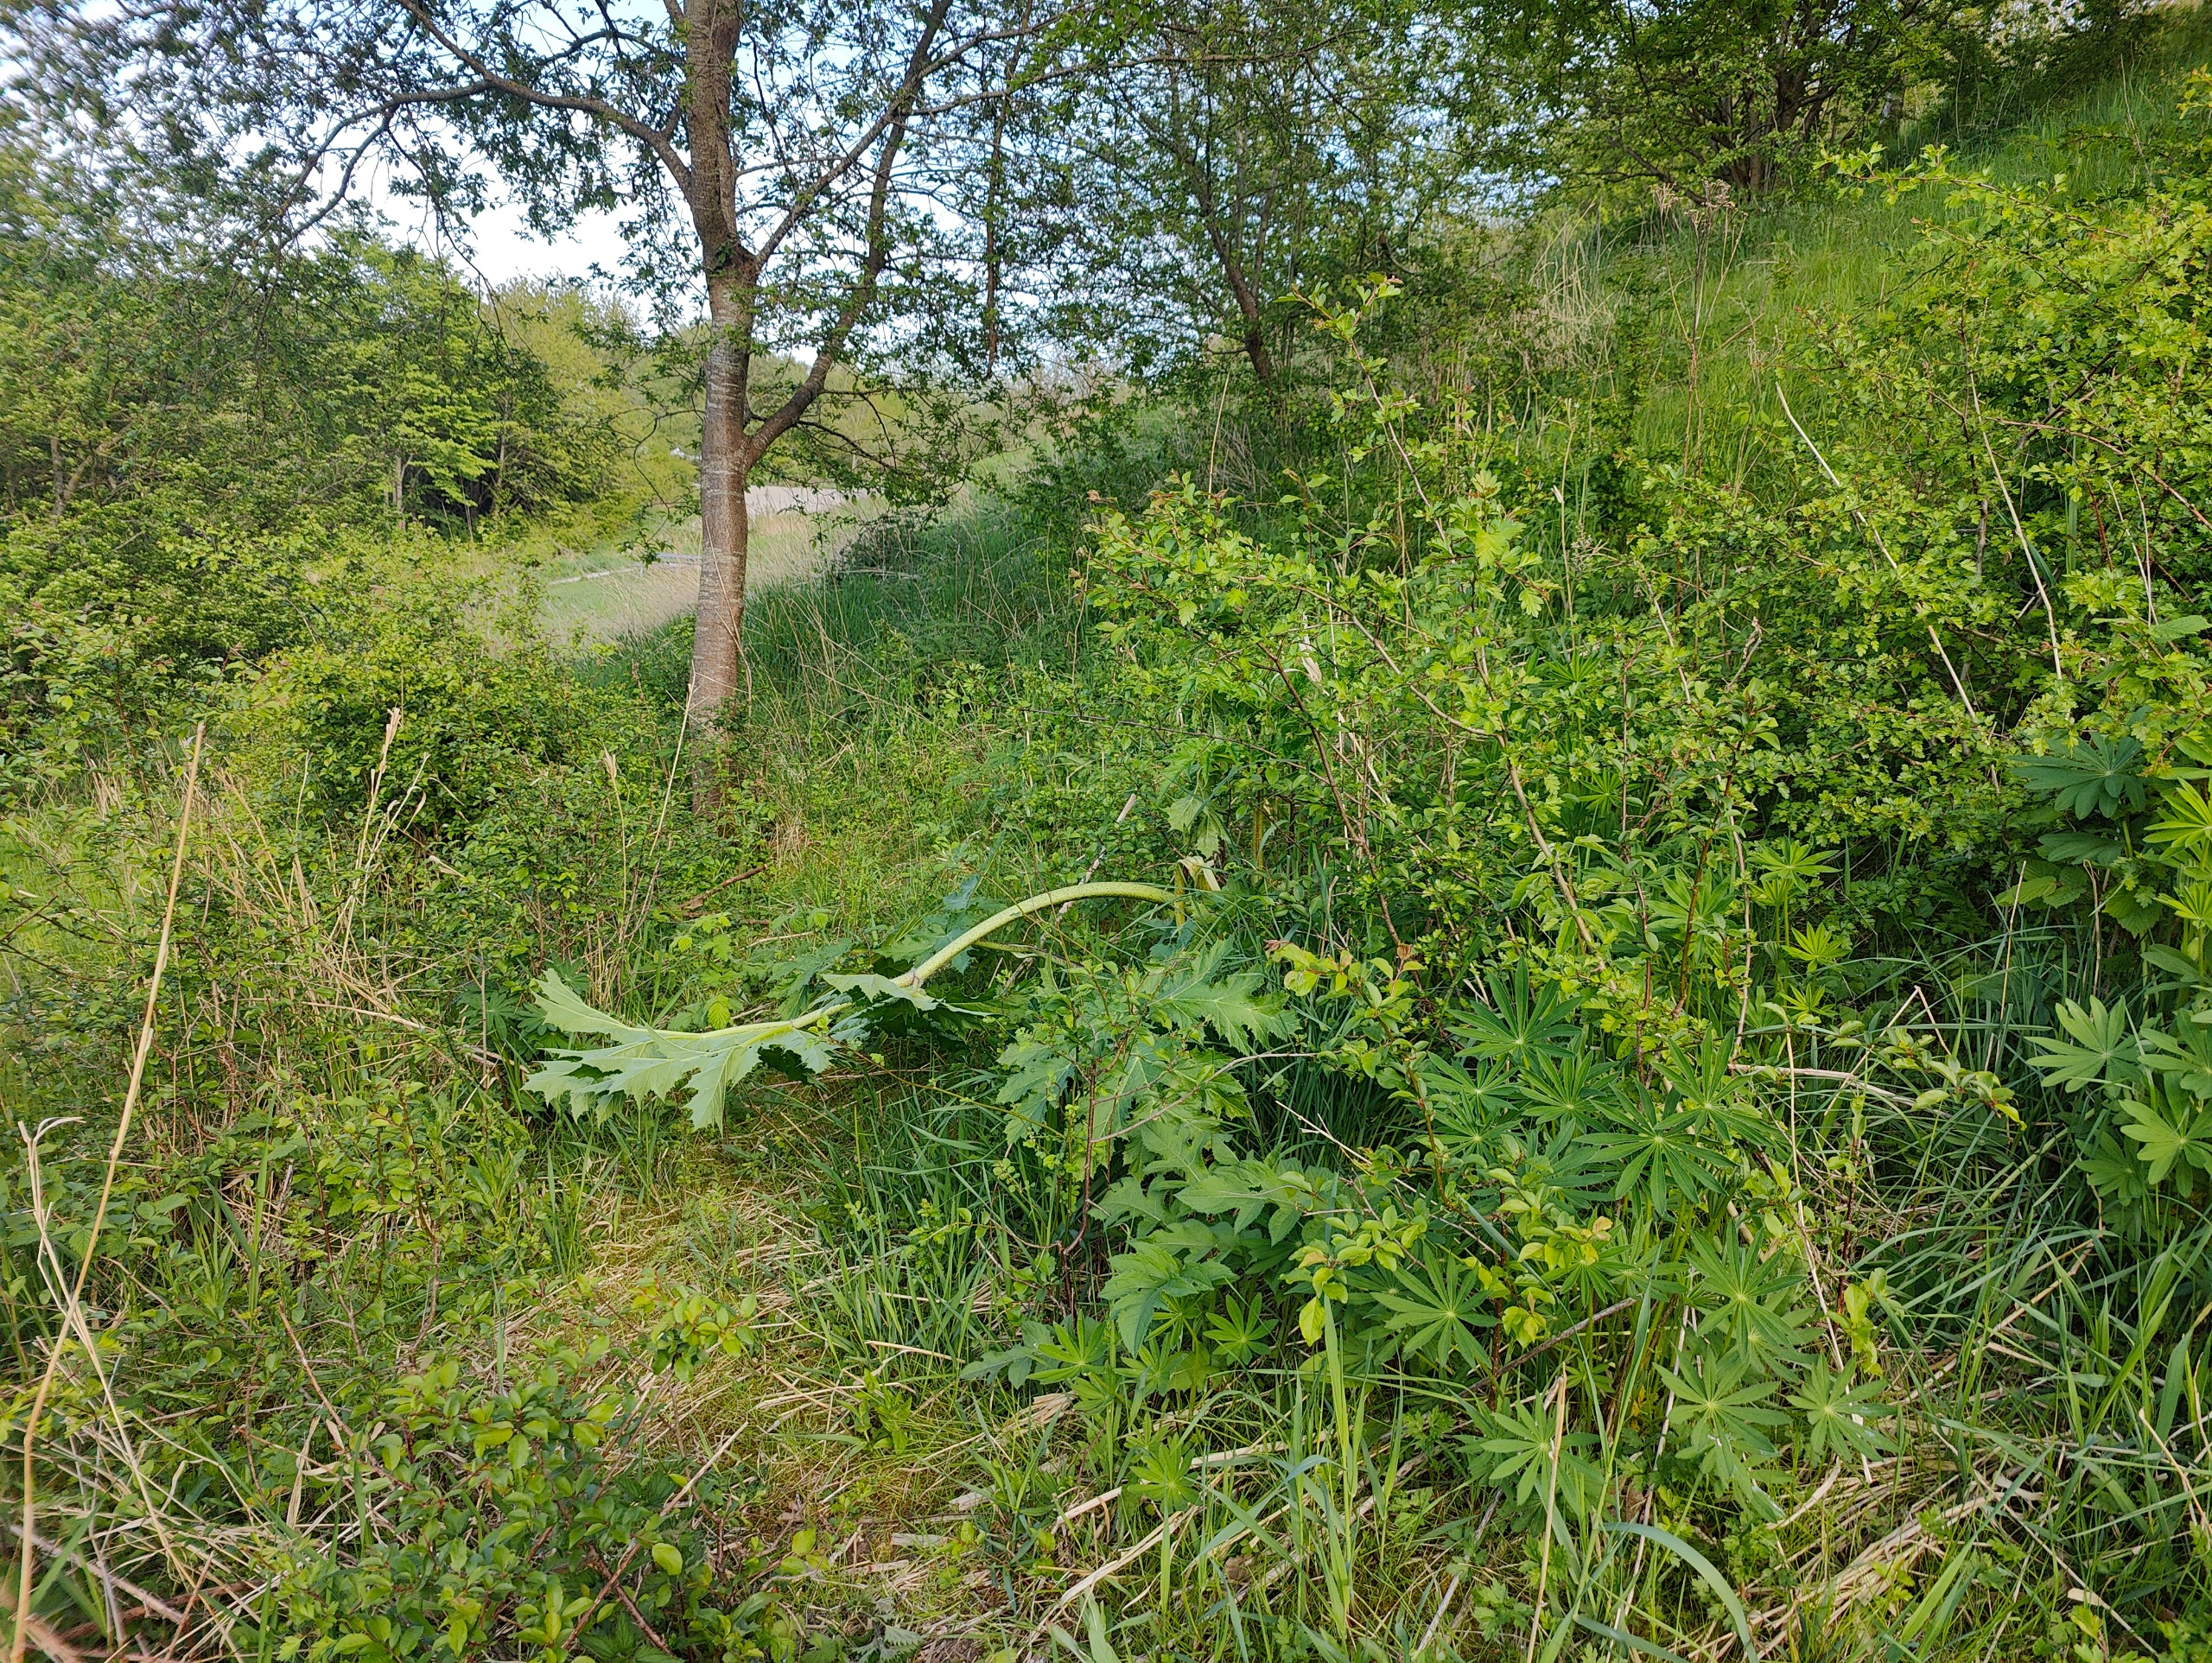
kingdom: Plantae
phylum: Tracheophyta
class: Magnoliopsida
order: Apiales
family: Apiaceae
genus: Heracleum
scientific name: Heracleum mantegazzianum
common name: Kæmpe-bjørneklo
